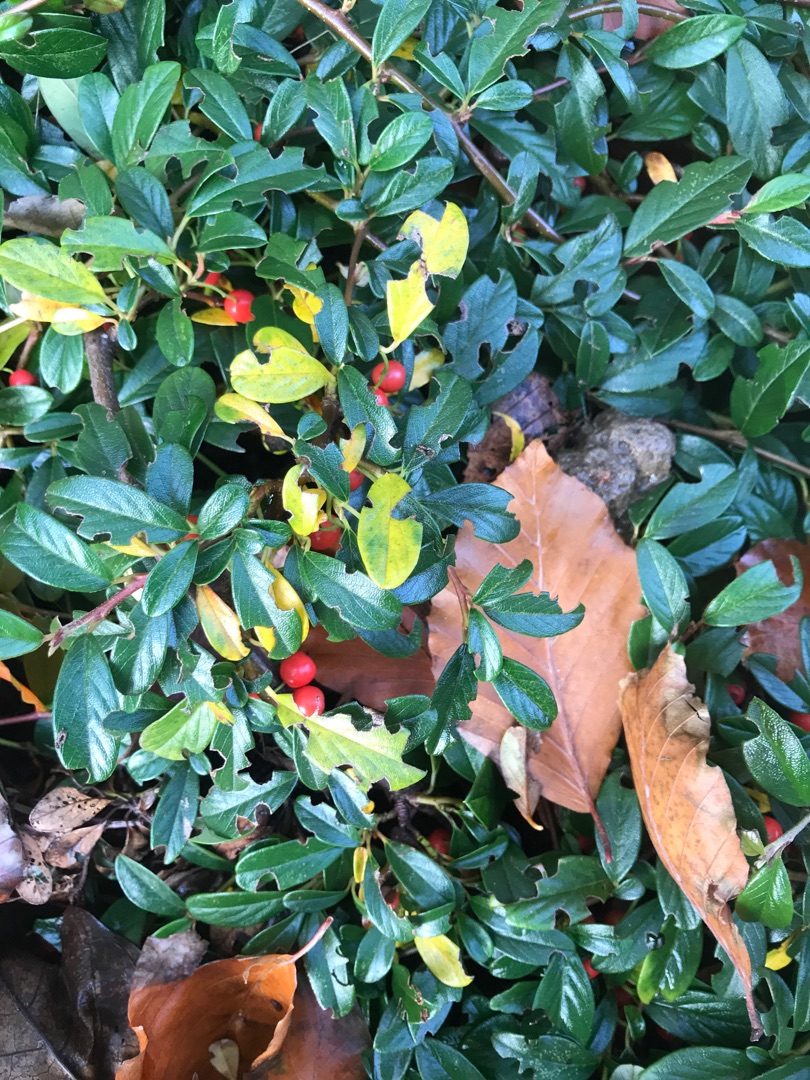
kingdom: Plantae
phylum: Tracheophyta
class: Magnoliopsida
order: Rosales
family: Rosaceae
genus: Cotoneaster
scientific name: Cotoneaster dammeri
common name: Krybende dværgmispel
